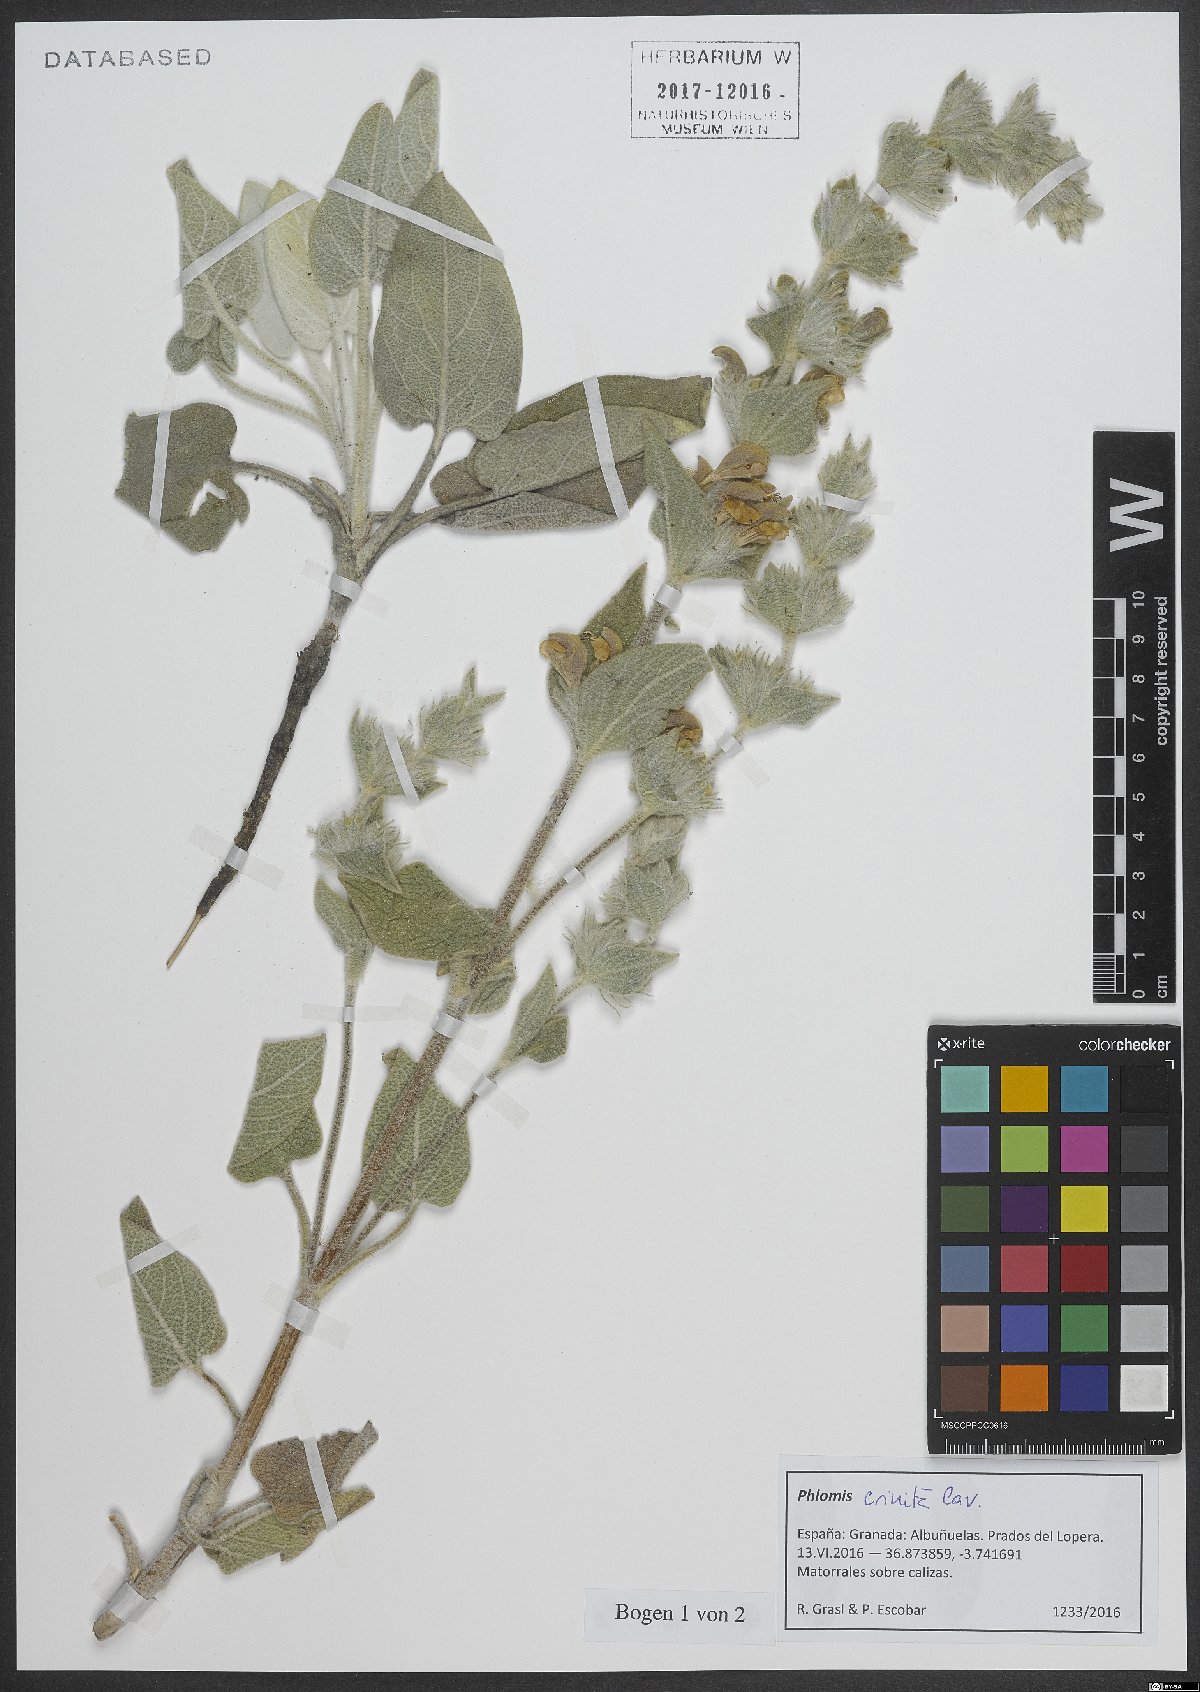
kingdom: Plantae
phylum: Tracheophyta
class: Magnoliopsida
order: Lamiales
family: Lamiaceae
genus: Phlomis
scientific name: Phlomis crinita
